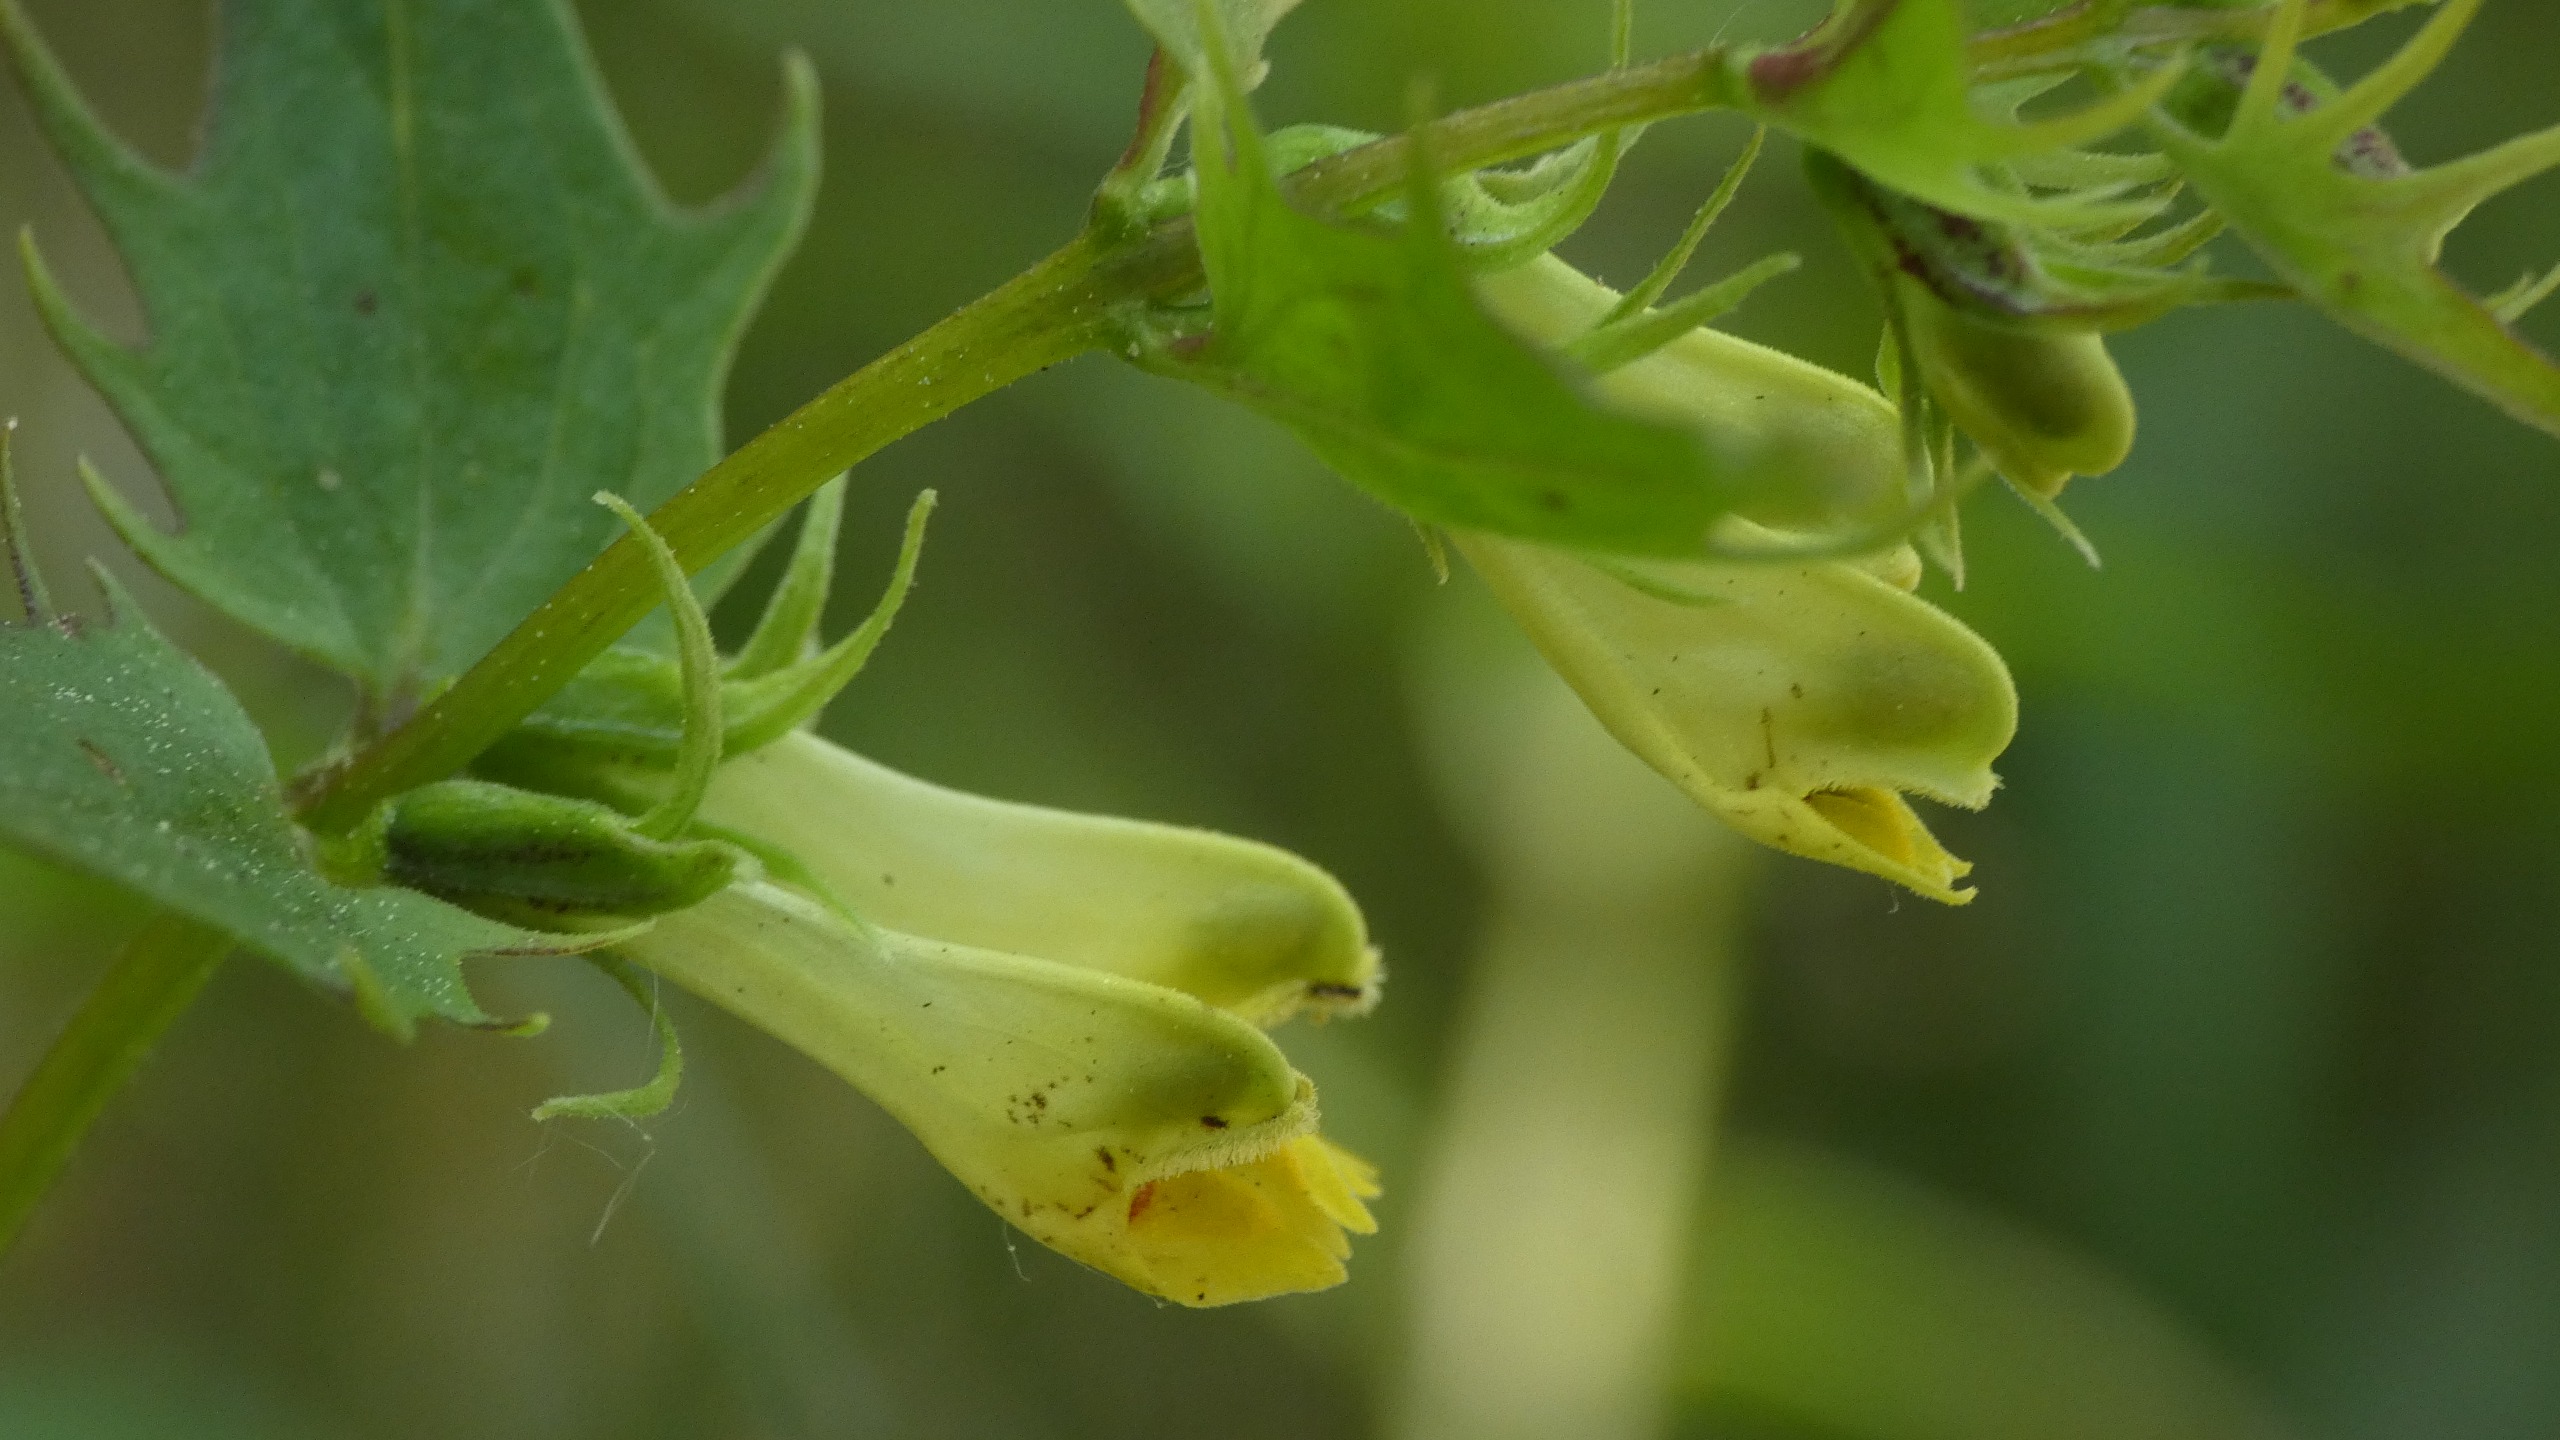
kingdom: Plantae
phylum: Tracheophyta
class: Magnoliopsida
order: Lamiales
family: Orobanchaceae
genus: Melampyrum
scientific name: Melampyrum pratense
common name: Almindelig kohvede
